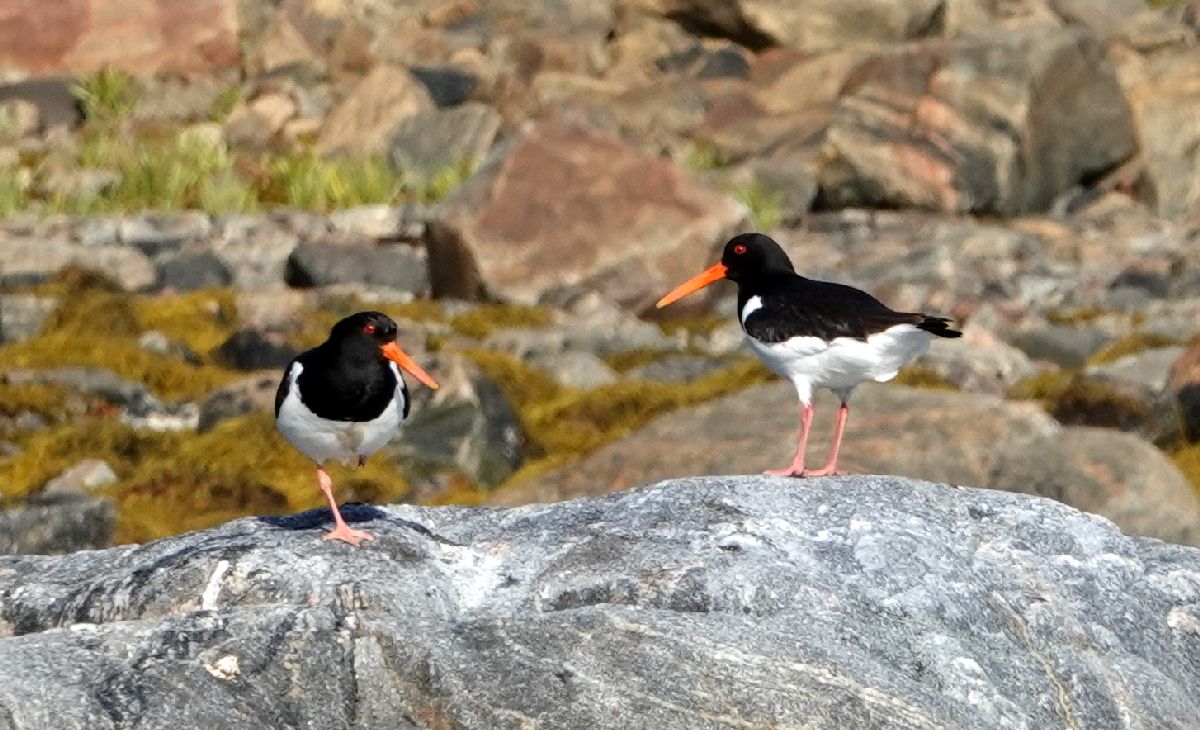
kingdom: Animalia
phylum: Chordata
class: Aves
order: Charadriiformes
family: Haematopodidae
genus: Haematopus
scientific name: Haematopus ostralegus
